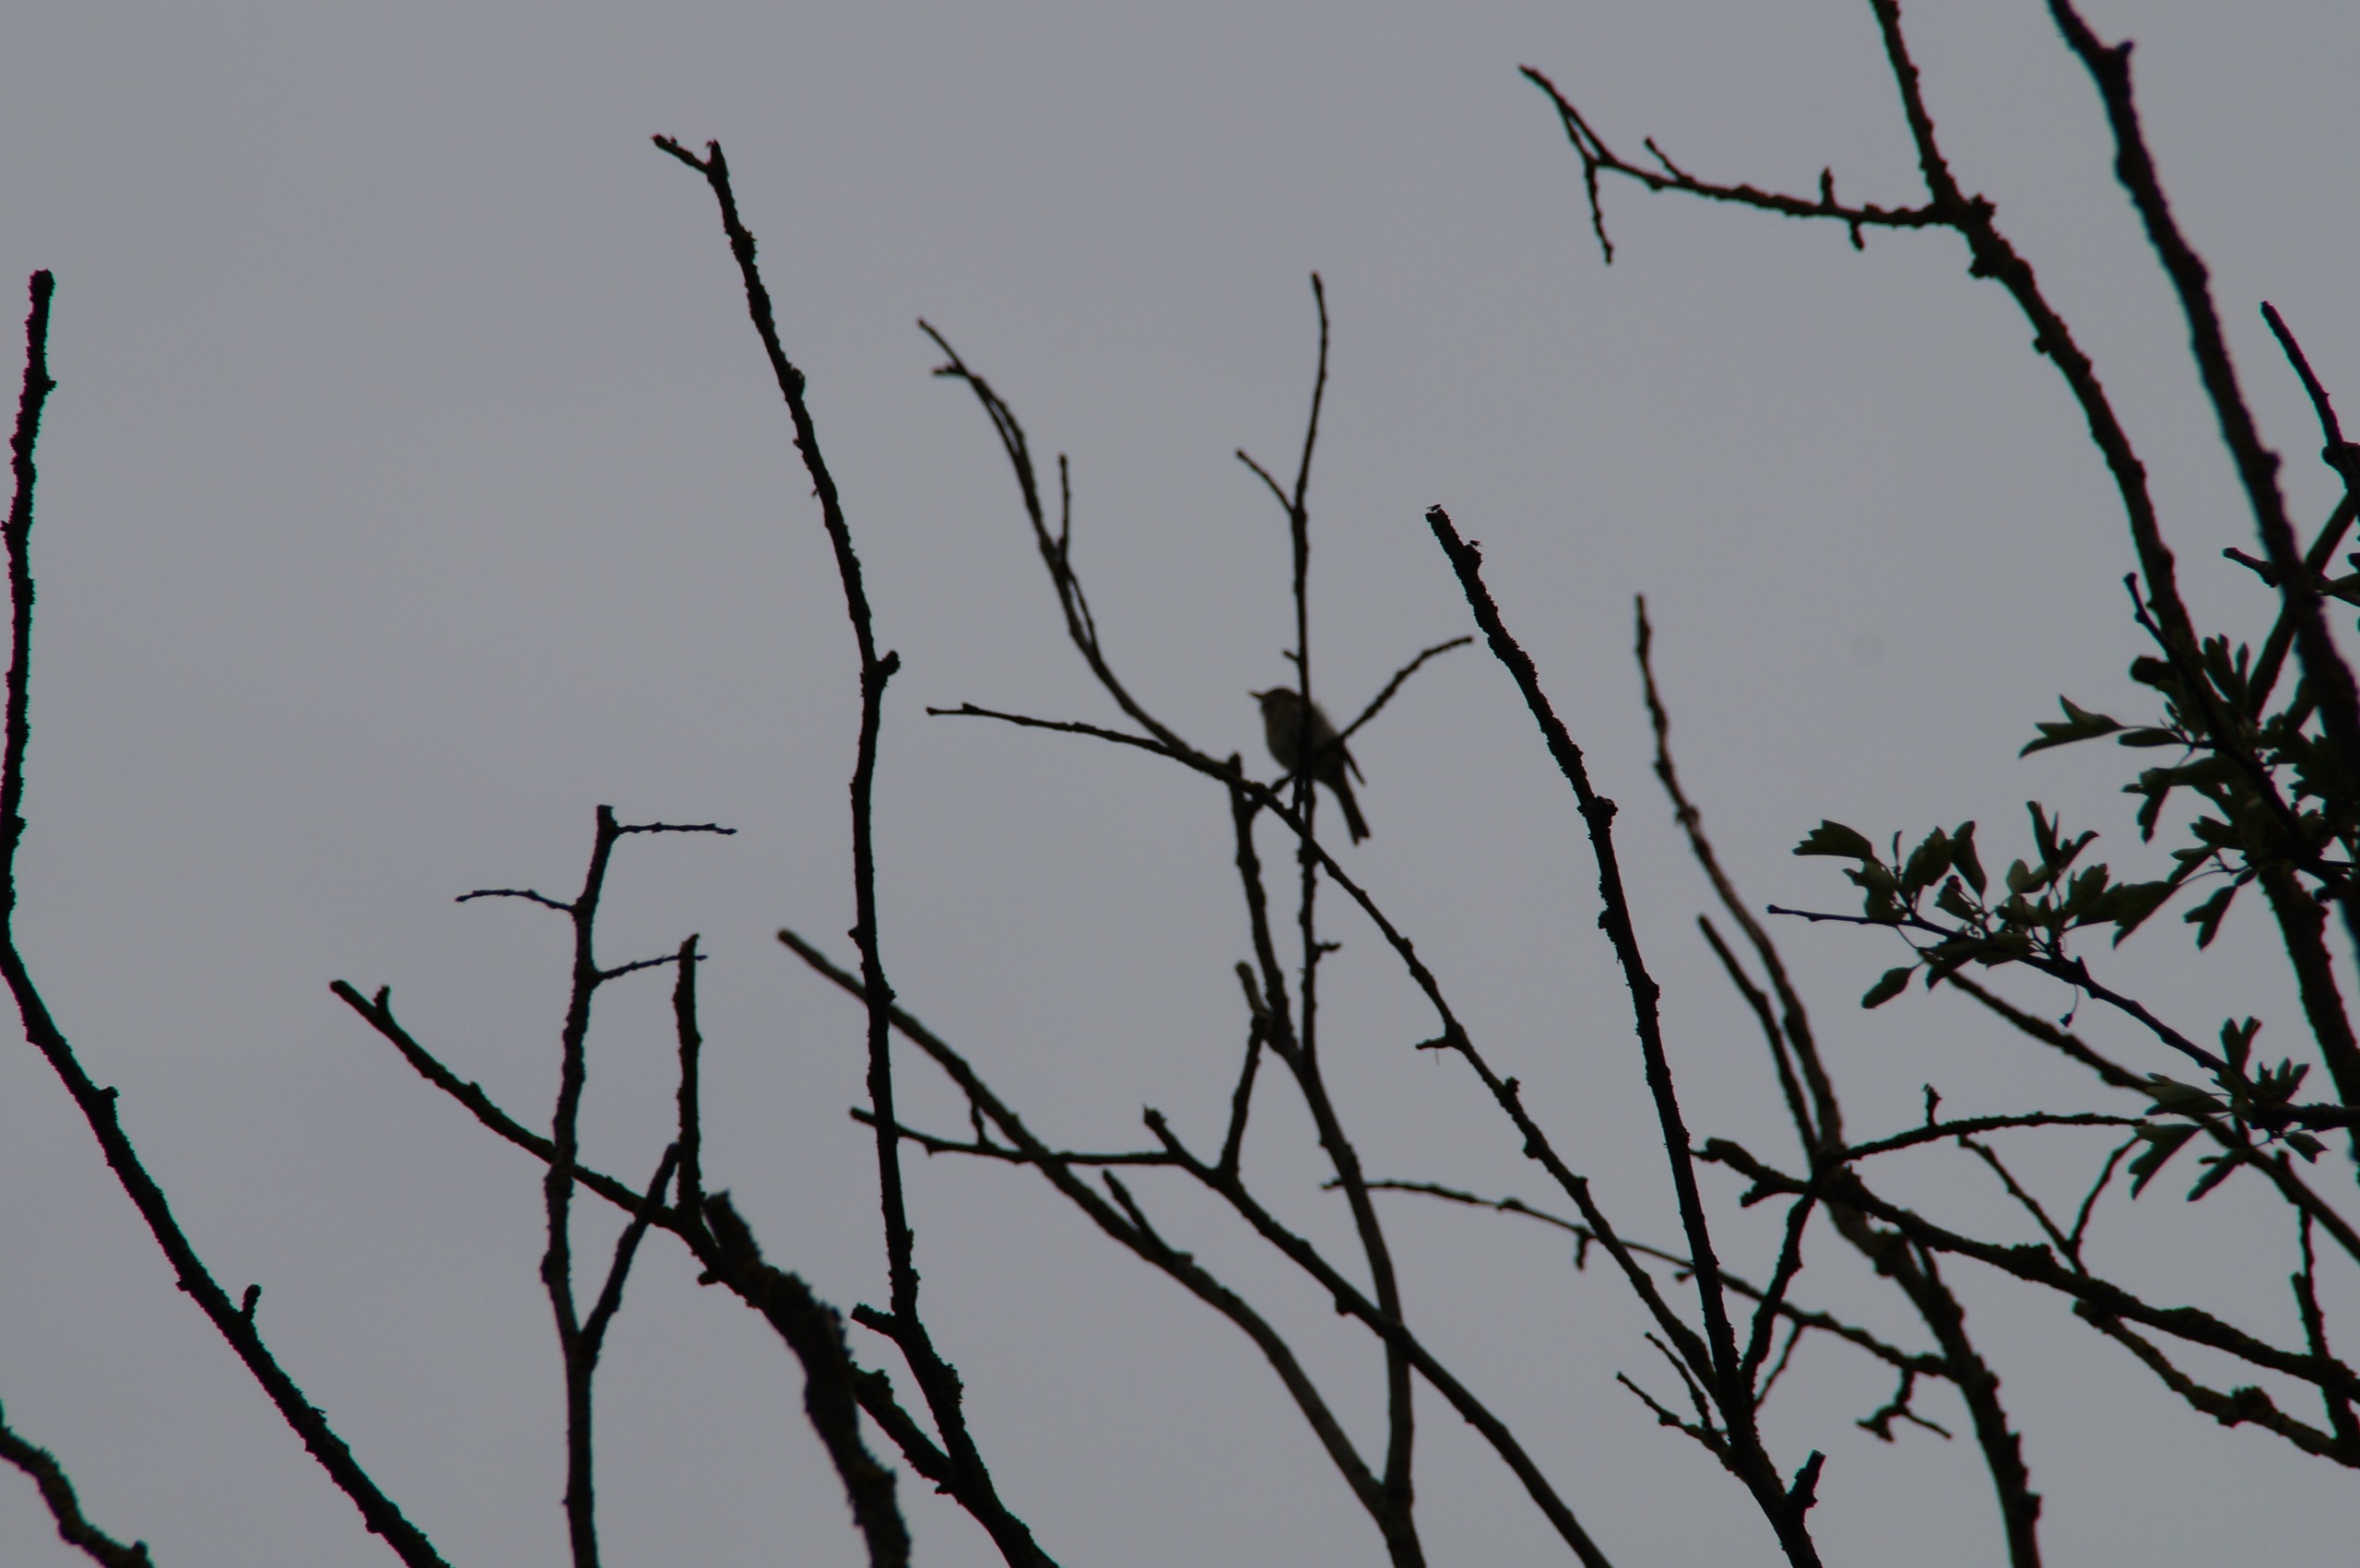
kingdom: Animalia
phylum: Chordata
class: Aves
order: Passeriformes
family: Phylloscopidae
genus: Phylloscopus
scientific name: Phylloscopus collybita
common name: Gransanger
